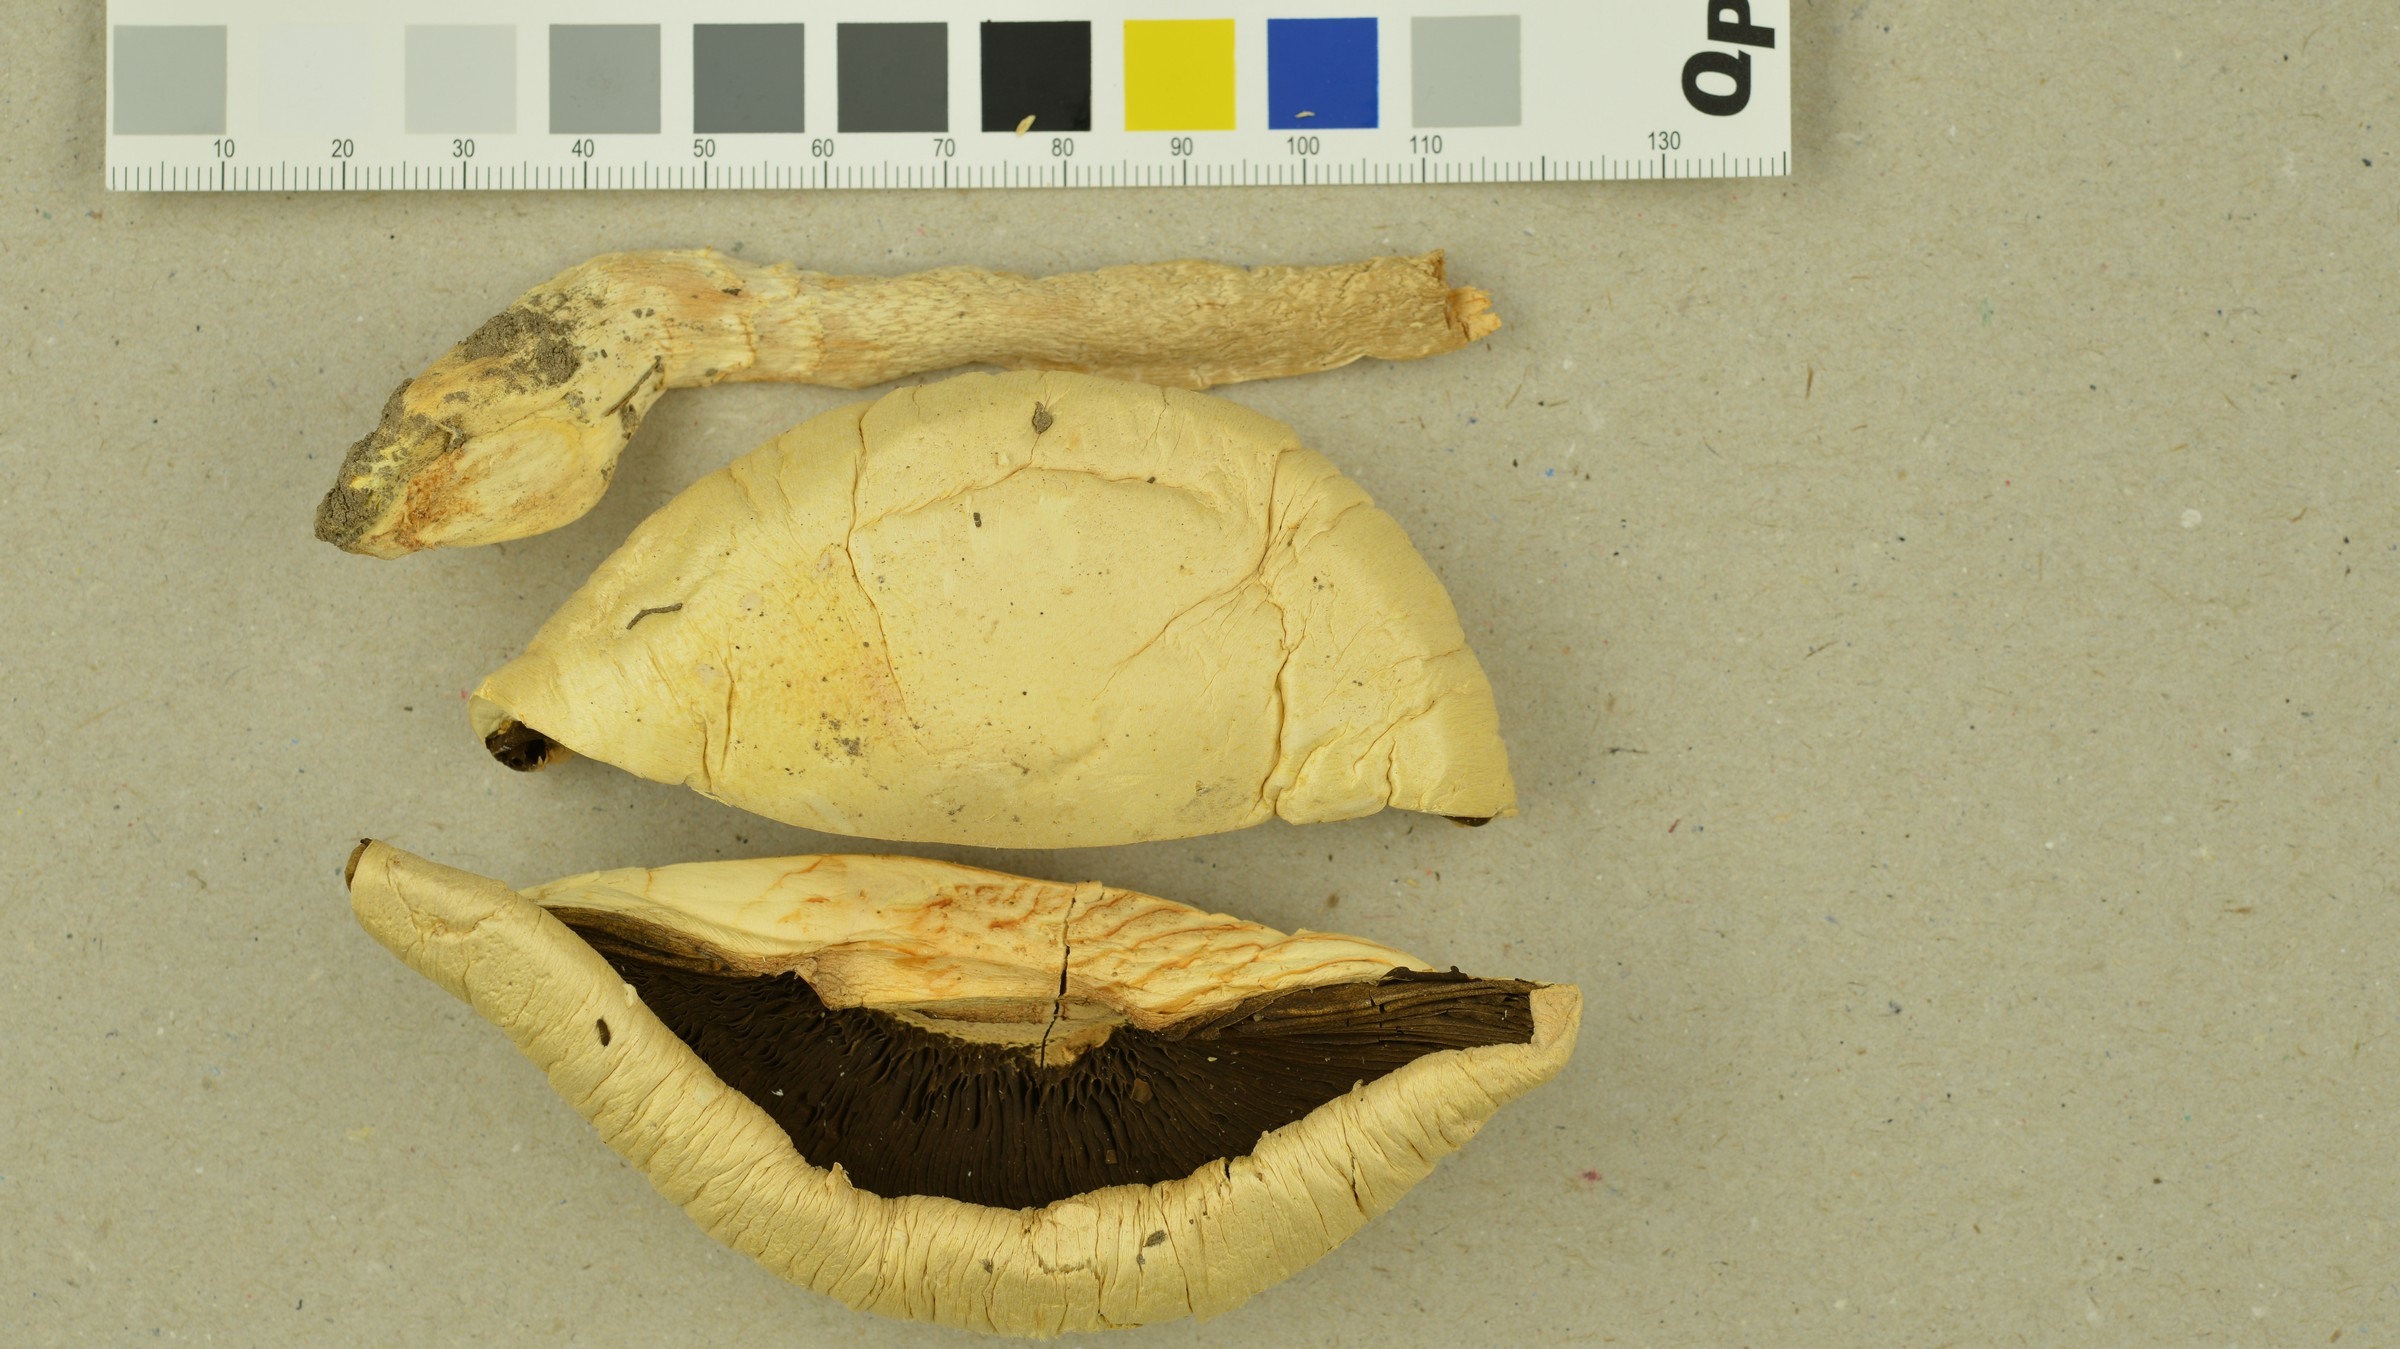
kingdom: Fungi
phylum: Basidiomycota
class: Agaricomycetes
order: Agaricales
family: Agaricaceae
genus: Agaricus
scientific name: Agaricus macrocarpus
